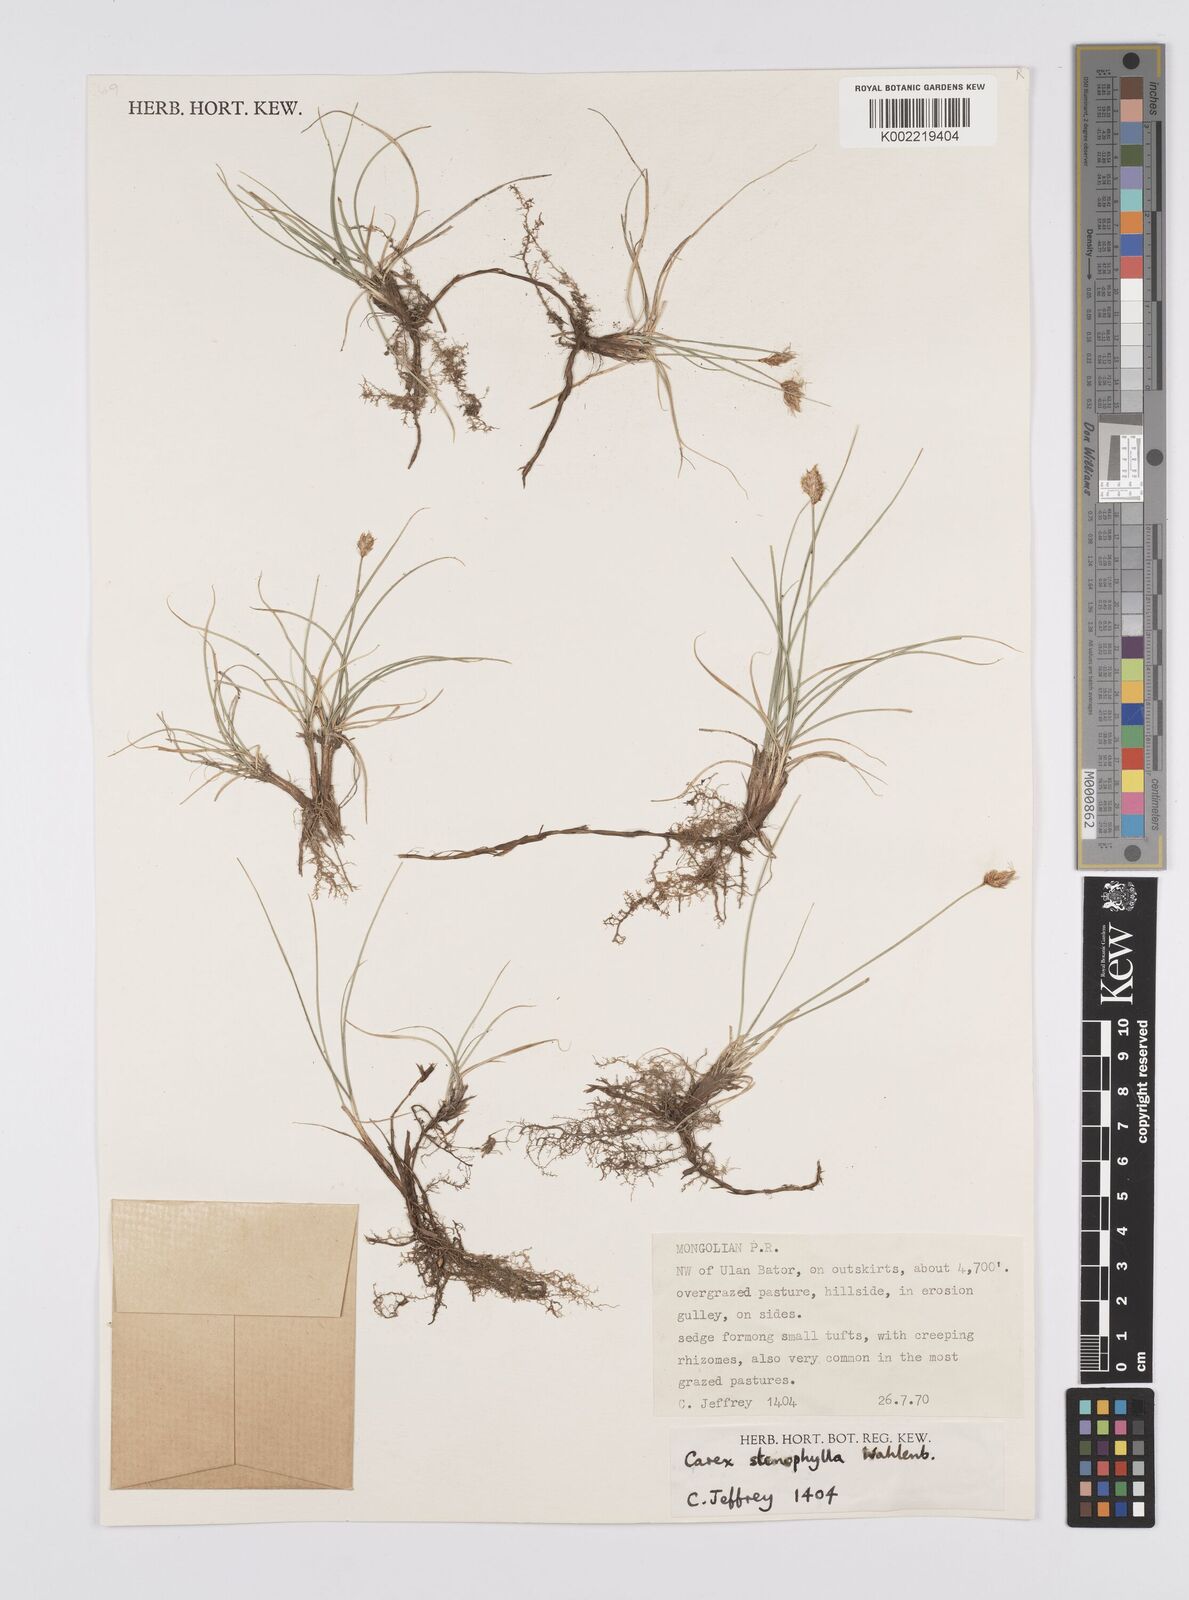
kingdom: Plantae
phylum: Tracheophyta
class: Liliopsida
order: Poales
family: Cyperaceae
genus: Carex
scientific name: Carex stenophylla
